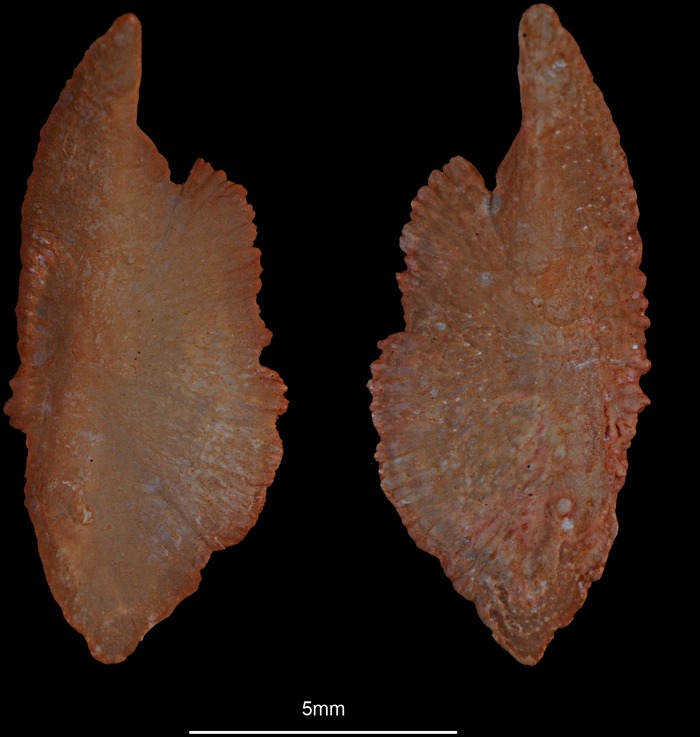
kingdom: Animalia
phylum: Chordata
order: Scorpaeniformes
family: Scorpaenidae
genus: Scorpaena
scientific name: Scorpaena porcus
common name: Black scorpionfish
